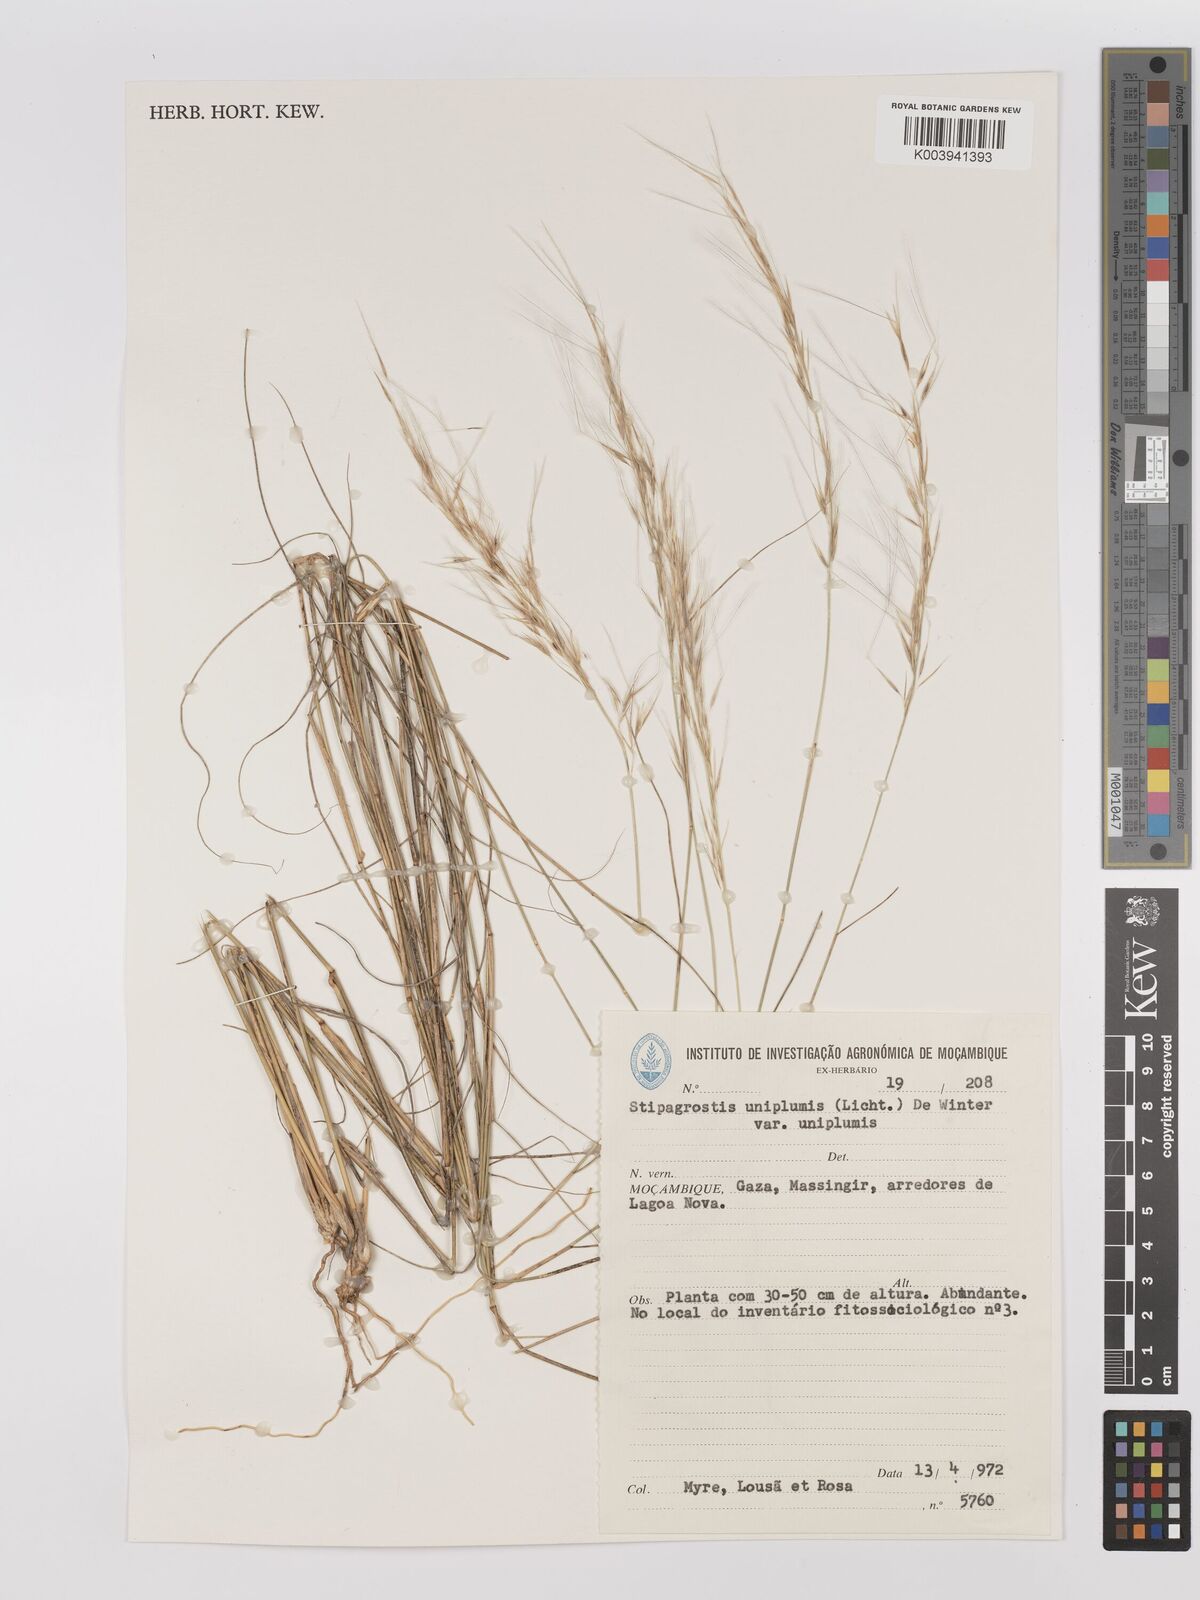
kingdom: Plantae
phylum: Tracheophyta
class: Liliopsida
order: Poales
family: Poaceae
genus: Stipagrostis
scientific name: Stipagrostis uniplumis
